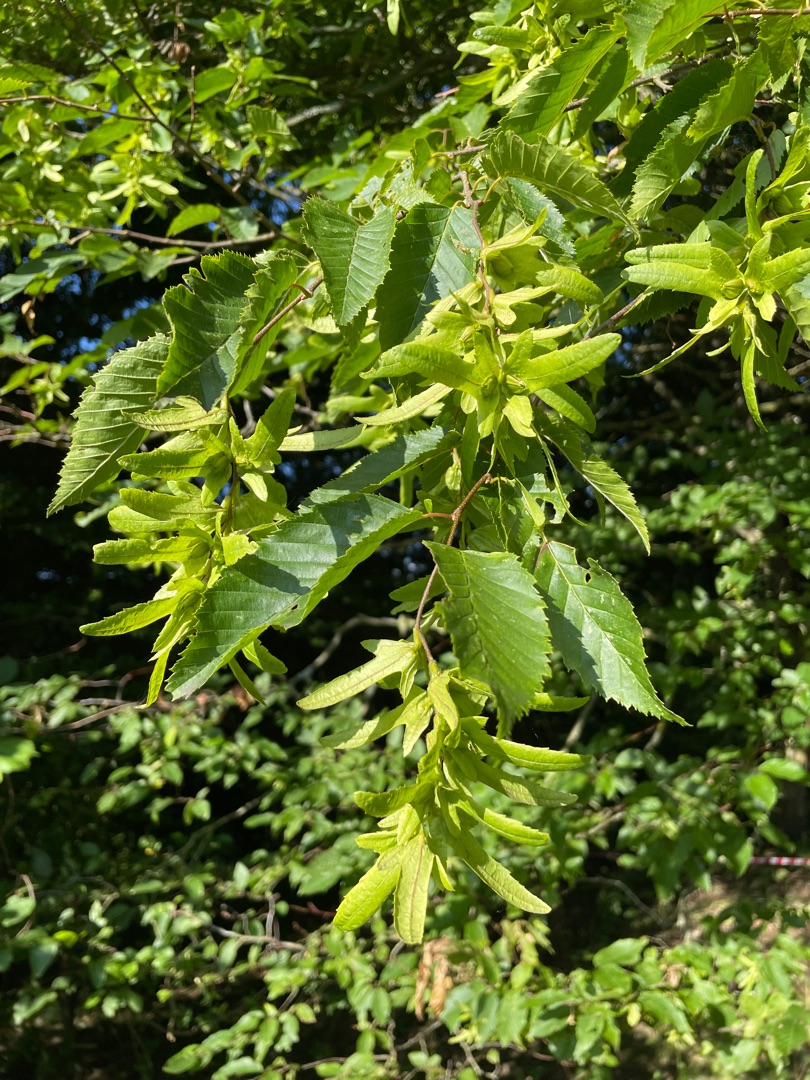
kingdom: Plantae
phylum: Tracheophyta
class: Magnoliopsida
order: Fagales
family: Betulaceae
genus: Carpinus
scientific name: Carpinus betulus
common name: Avnbøg
